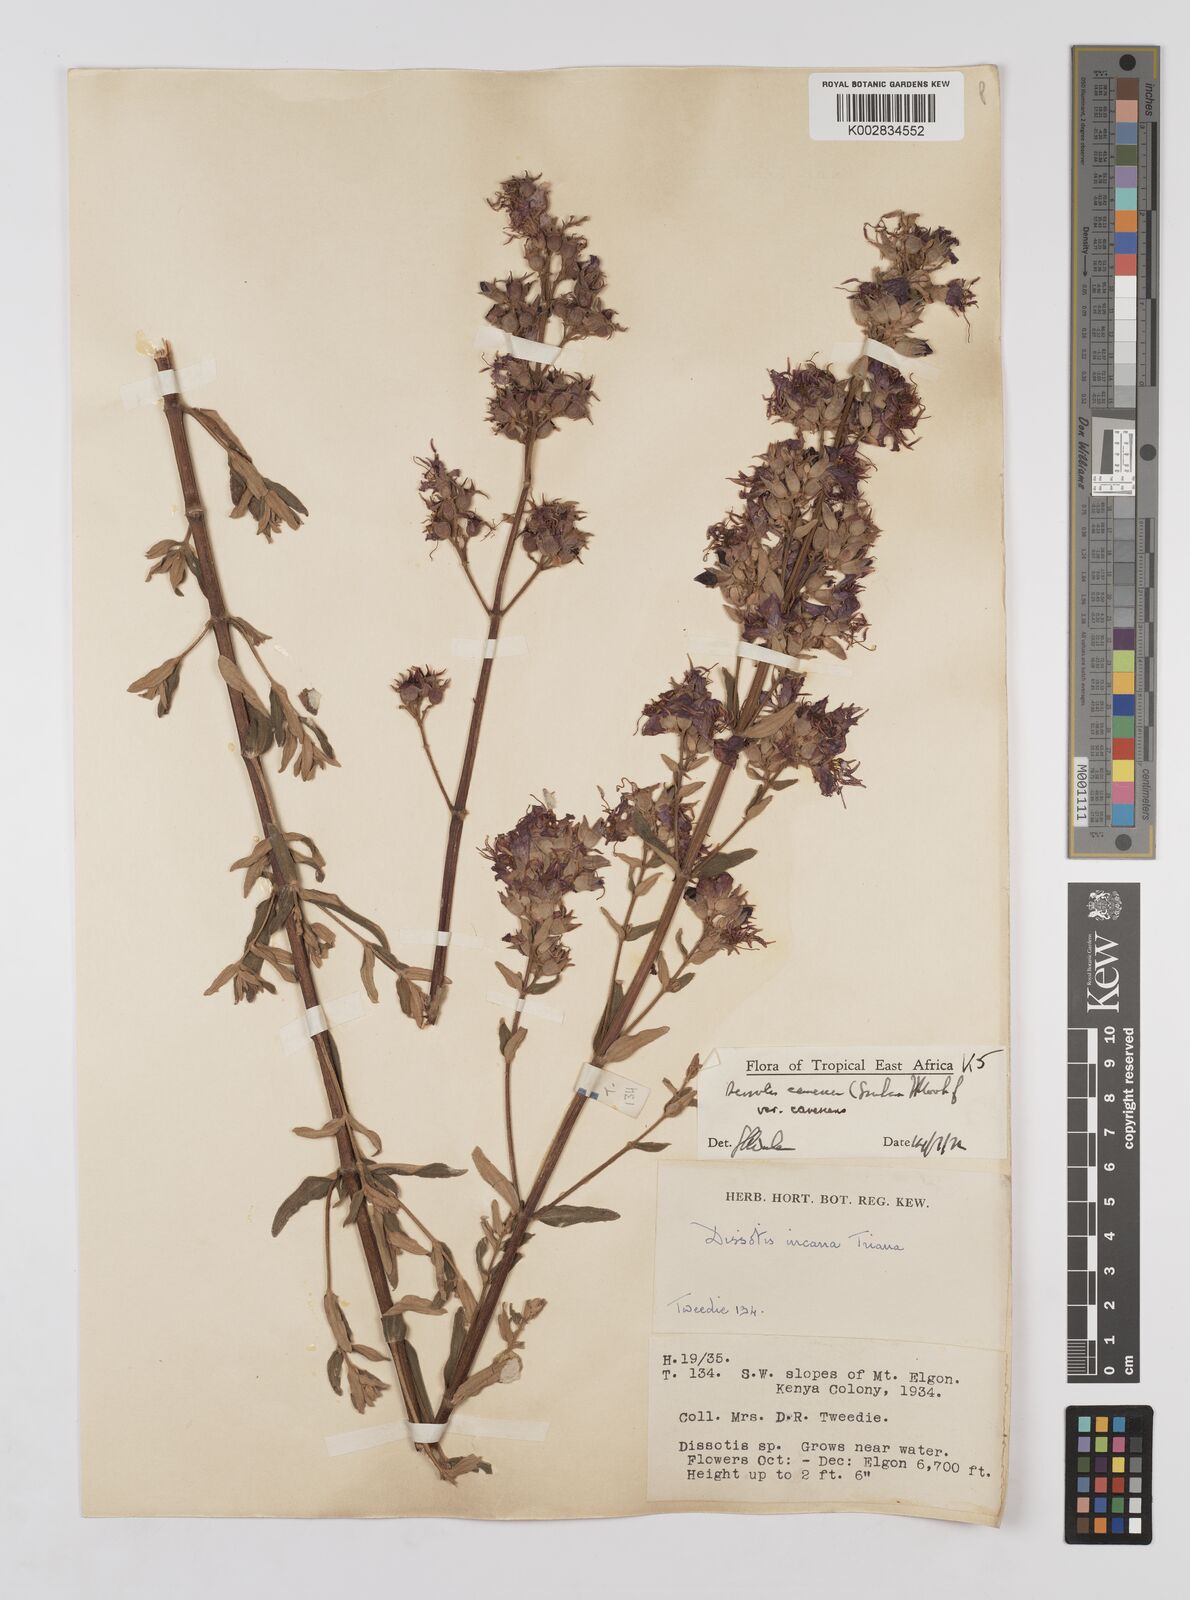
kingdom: Plantae
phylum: Tracheophyta
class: Magnoliopsida
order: Myrtales
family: Melastomataceae
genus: Argyrella
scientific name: Argyrella canescens
